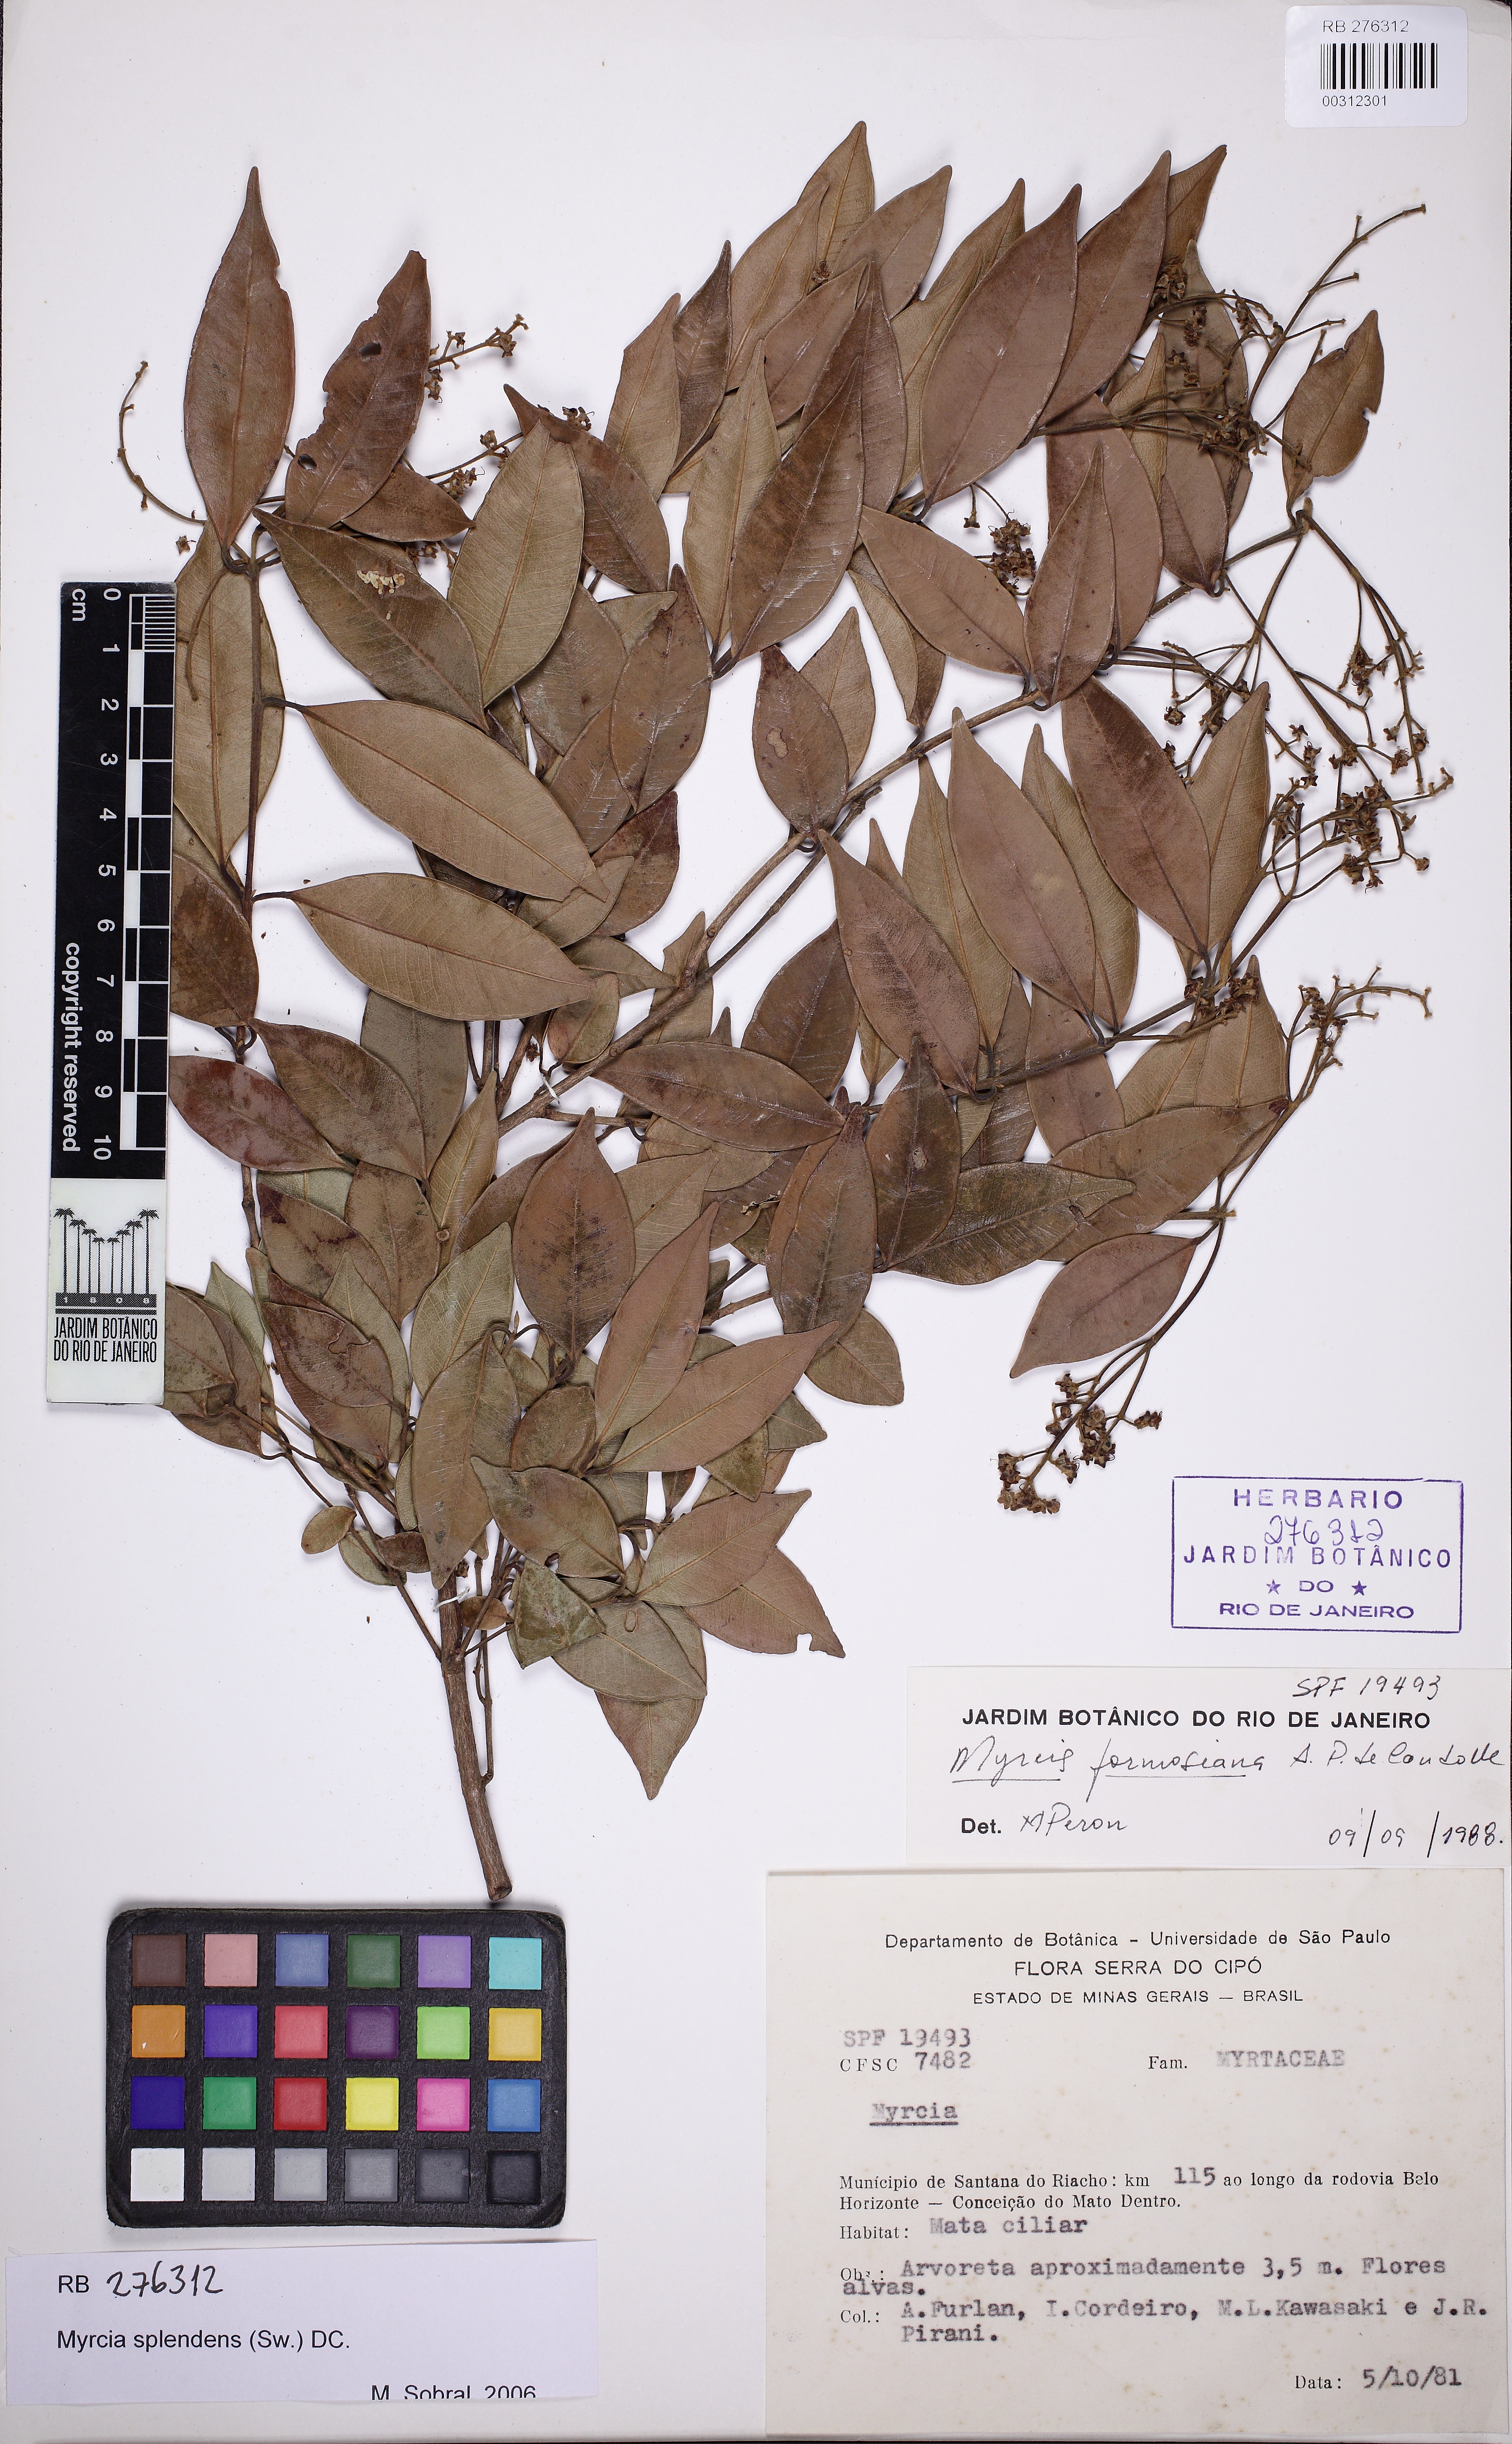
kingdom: Plantae
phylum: Tracheophyta
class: Magnoliopsida
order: Myrtales
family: Myrtaceae
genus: Myrcia
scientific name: Myrcia splendens
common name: Surinam cherry
